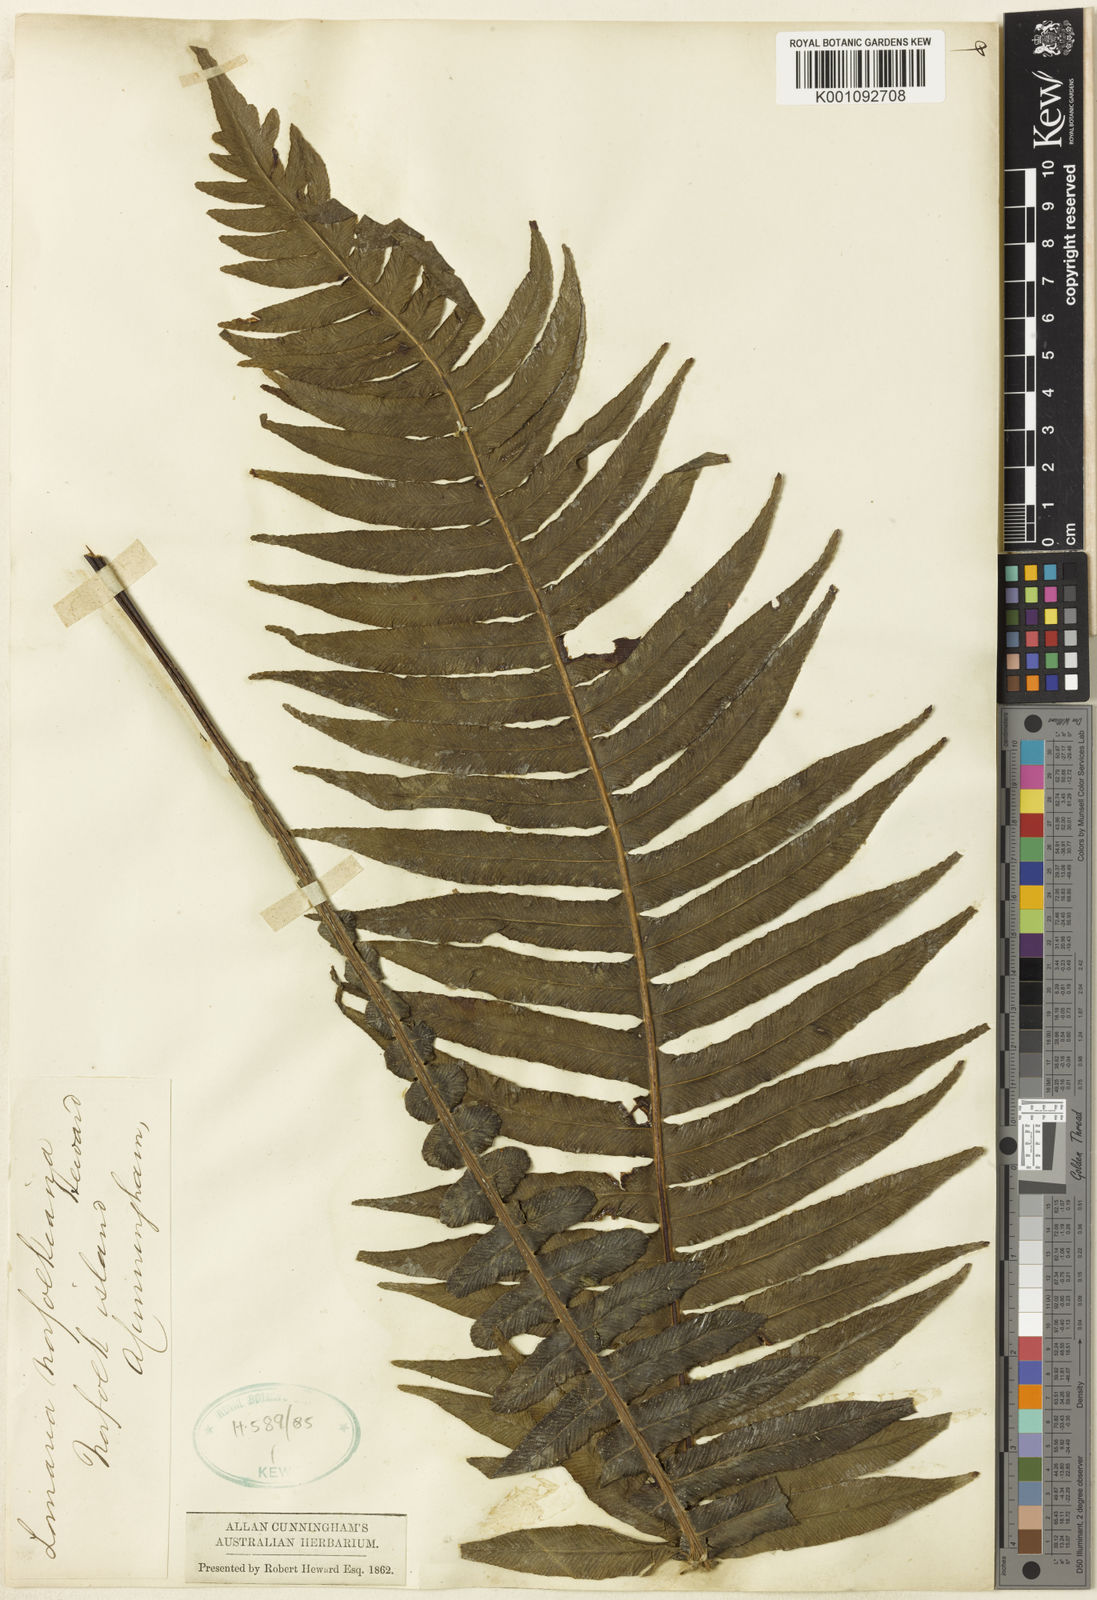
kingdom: Plantae
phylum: Tracheophyta
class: Polypodiopsida
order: Polypodiales
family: Blechnaceae
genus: Austroblechnum
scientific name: Austroblechnum norfolkianum
